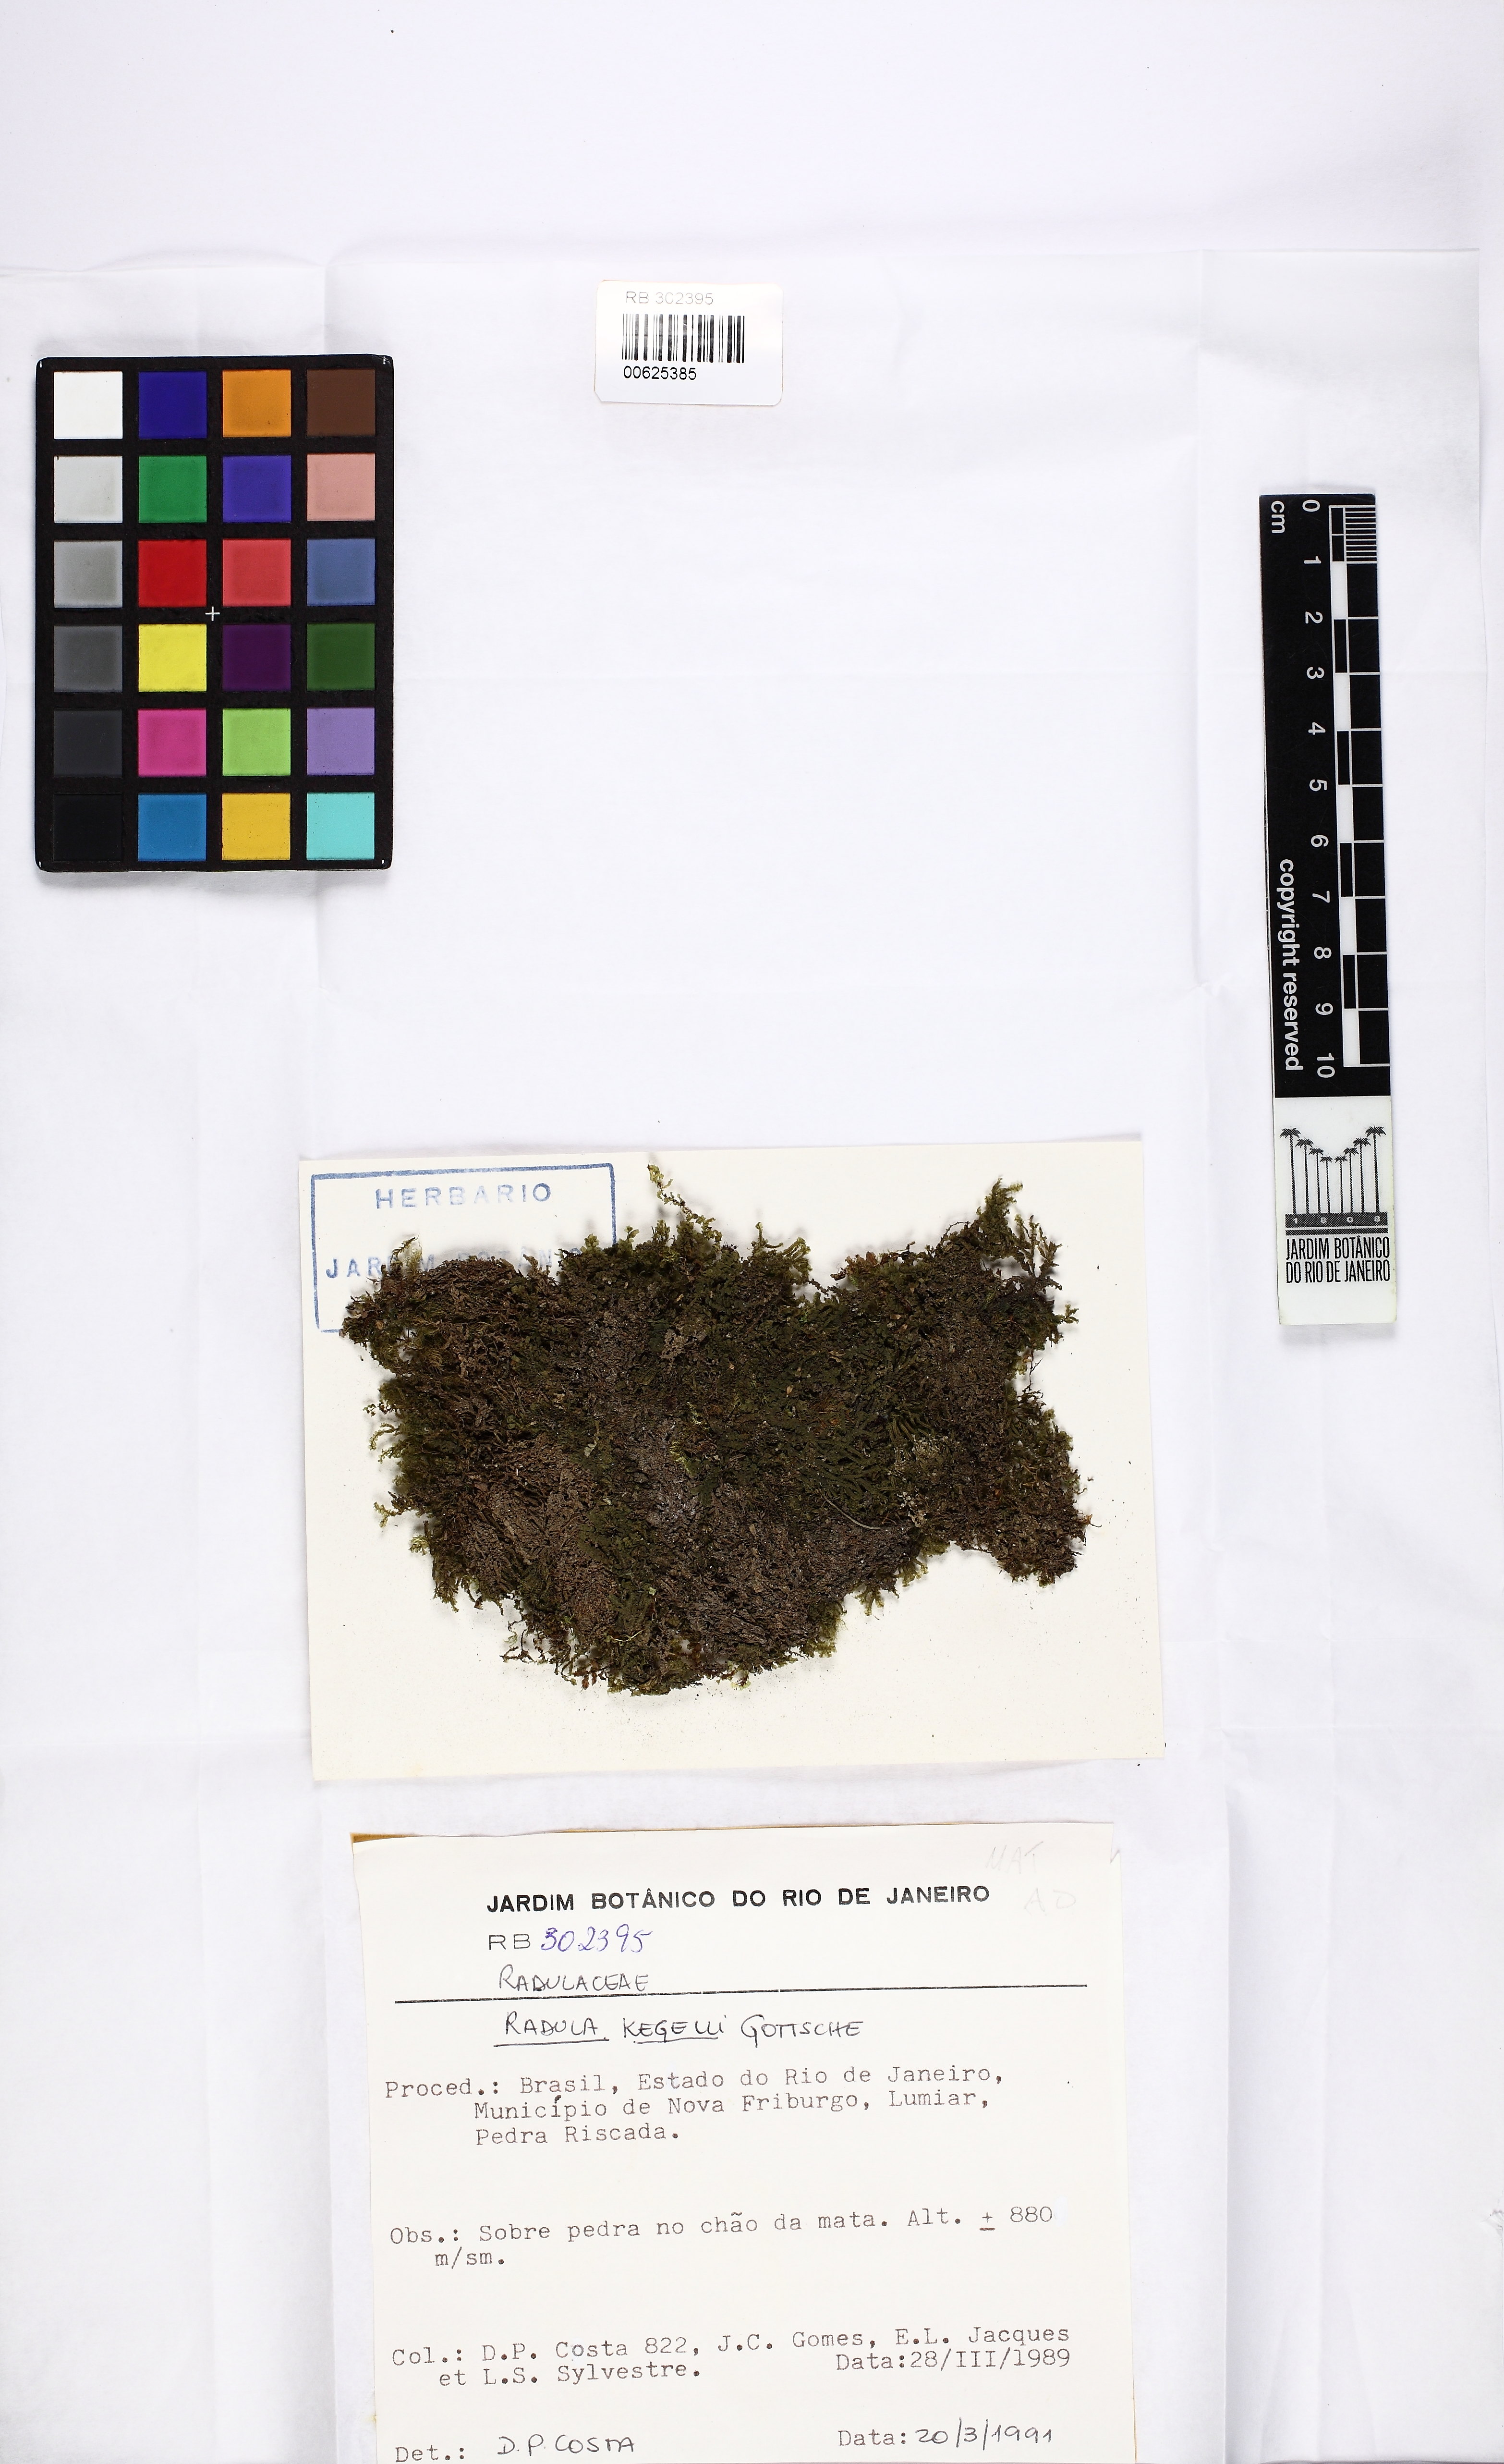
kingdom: Plantae
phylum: Marchantiophyta
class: Jungermanniopsida
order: Porellales
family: Radulaceae
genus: Radula
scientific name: Radula pallens
